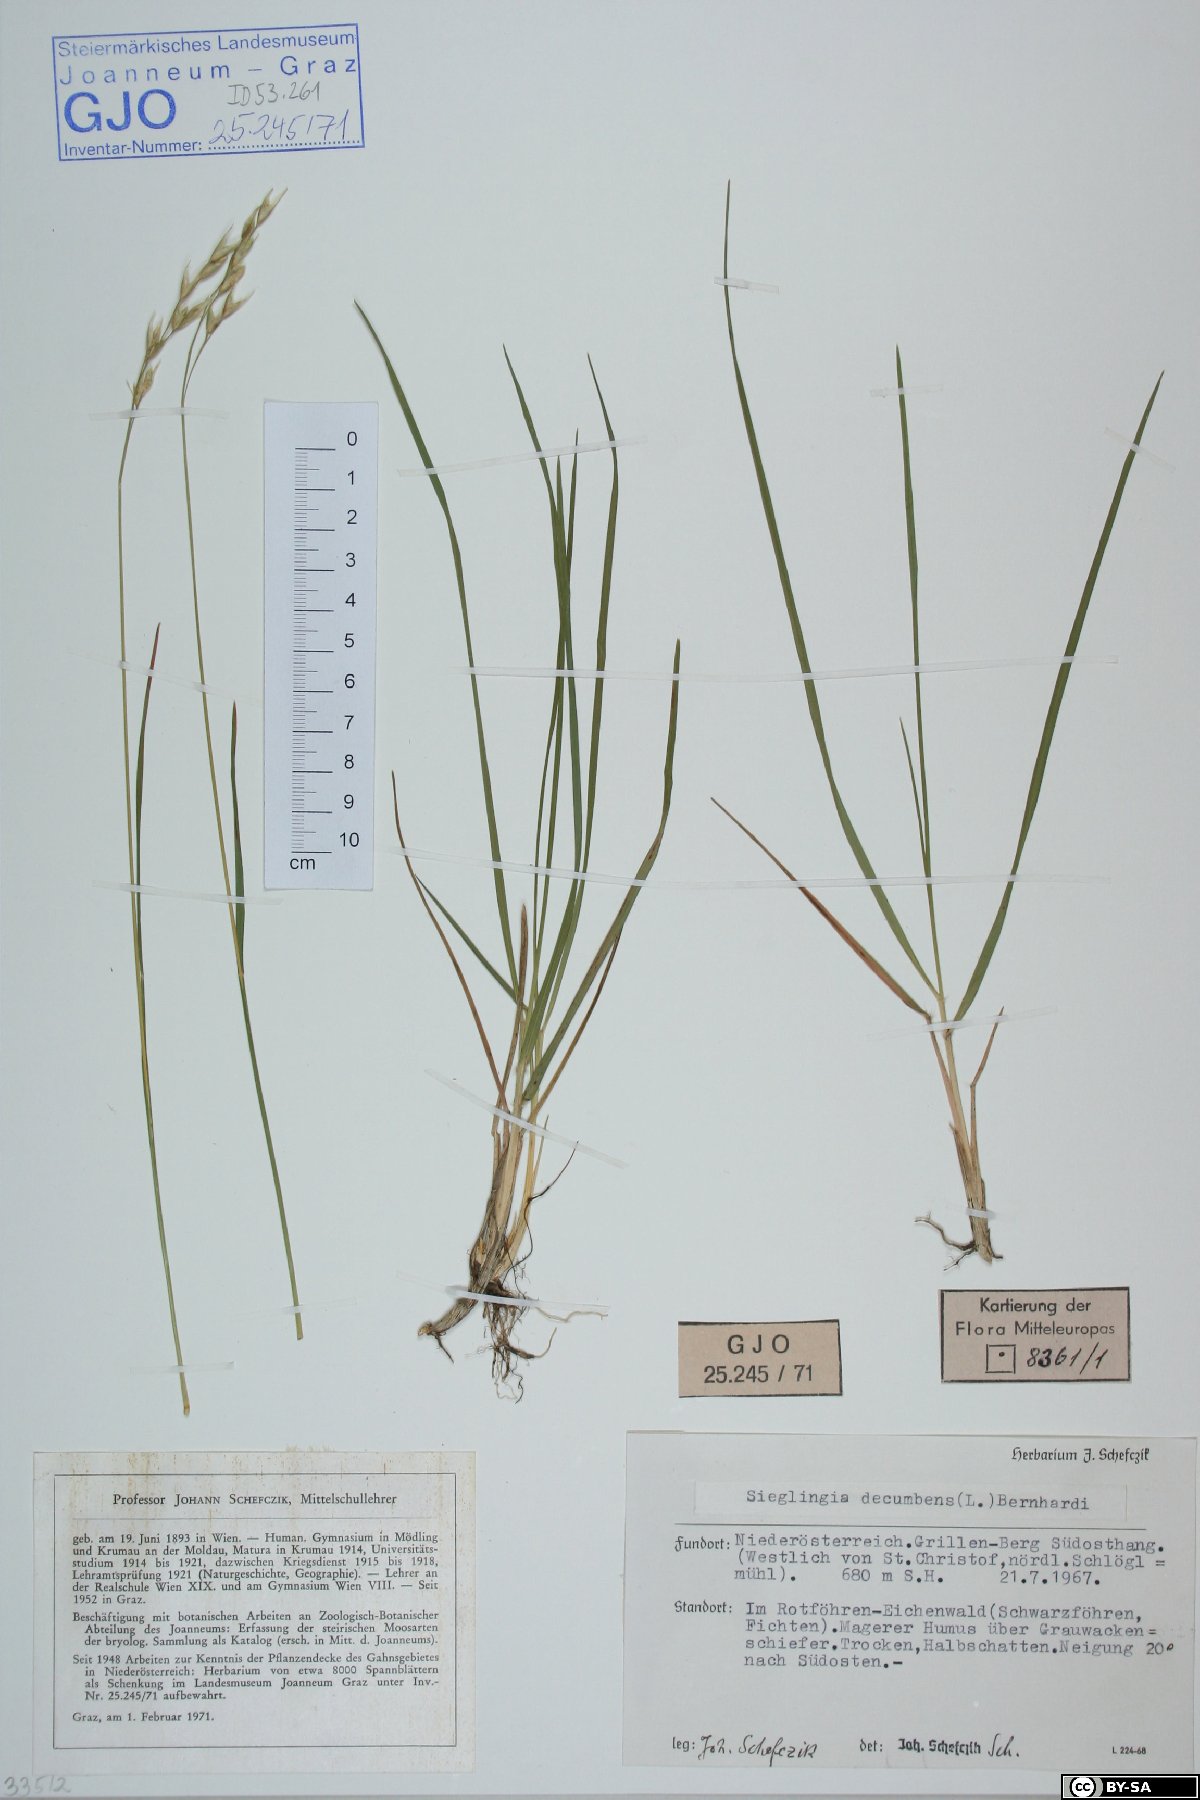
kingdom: Plantae
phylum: Tracheophyta
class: Liliopsida
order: Poales
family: Poaceae
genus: Danthonia
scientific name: Danthonia decumbens
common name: Common heathgrass
